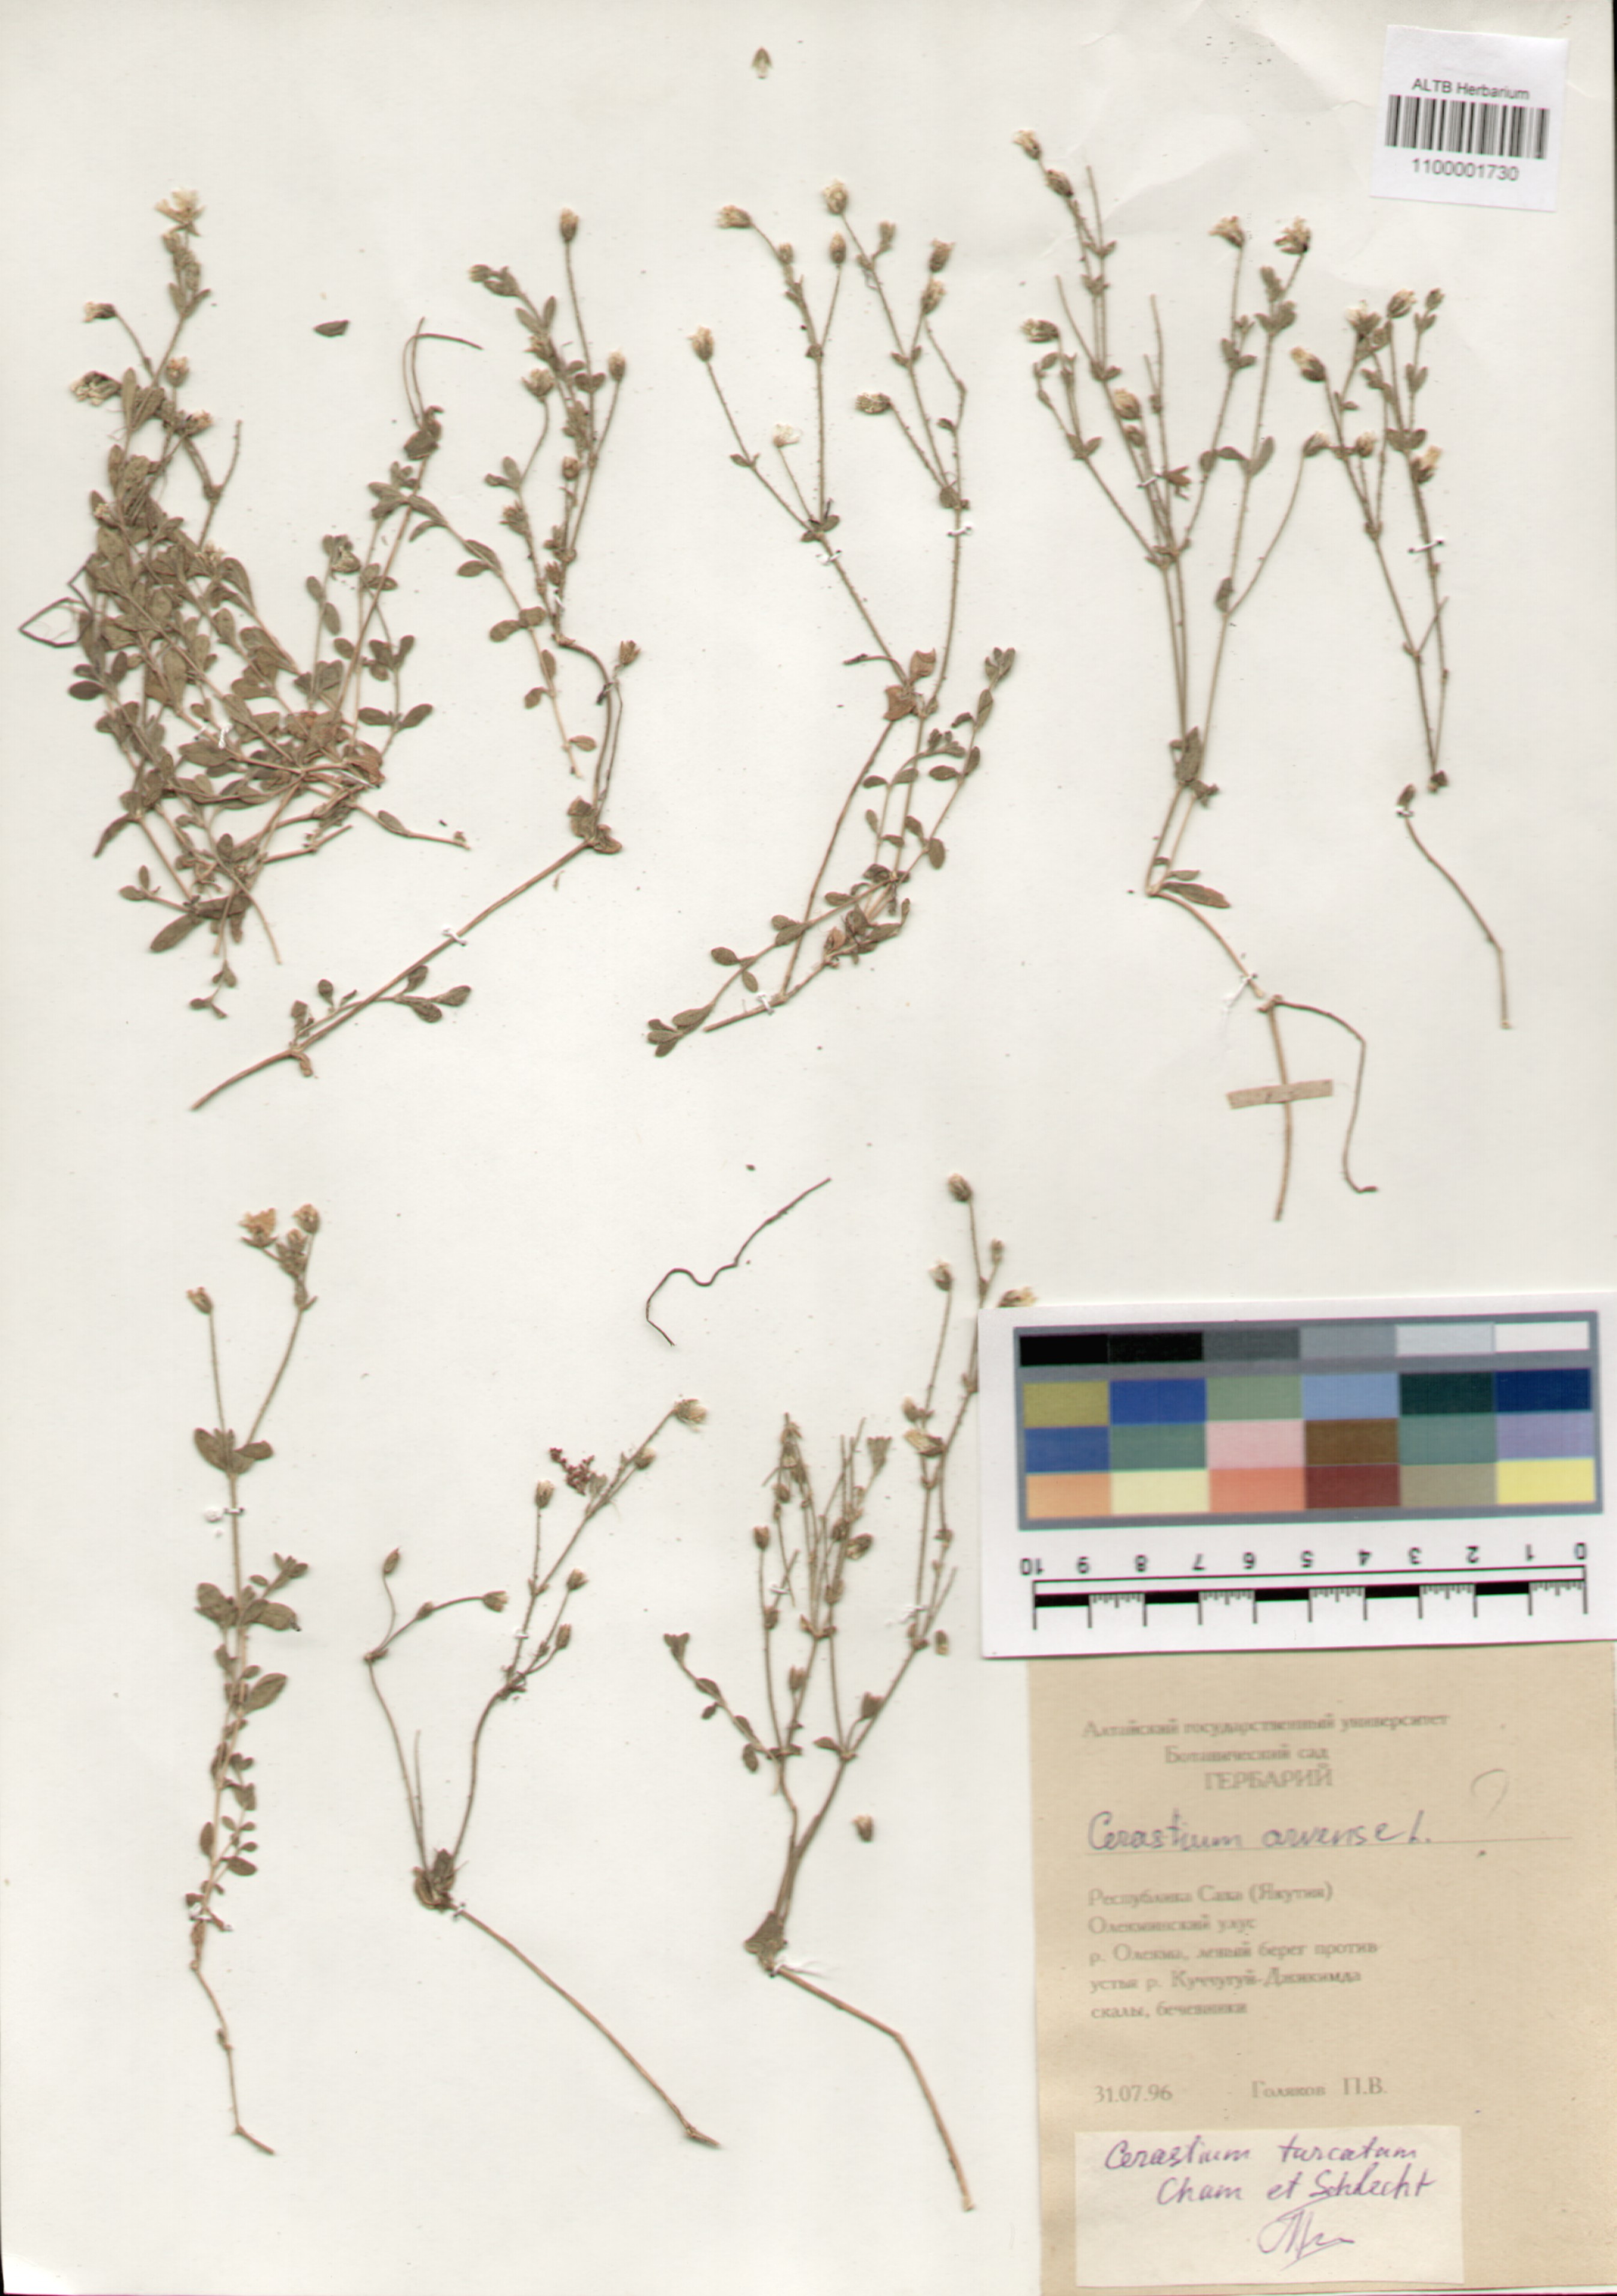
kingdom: Plantae
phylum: Tracheophyta
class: Magnoliopsida
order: Caryophyllales
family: Caryophyllaceae
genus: Cerastium
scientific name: Cerastium furcatum
